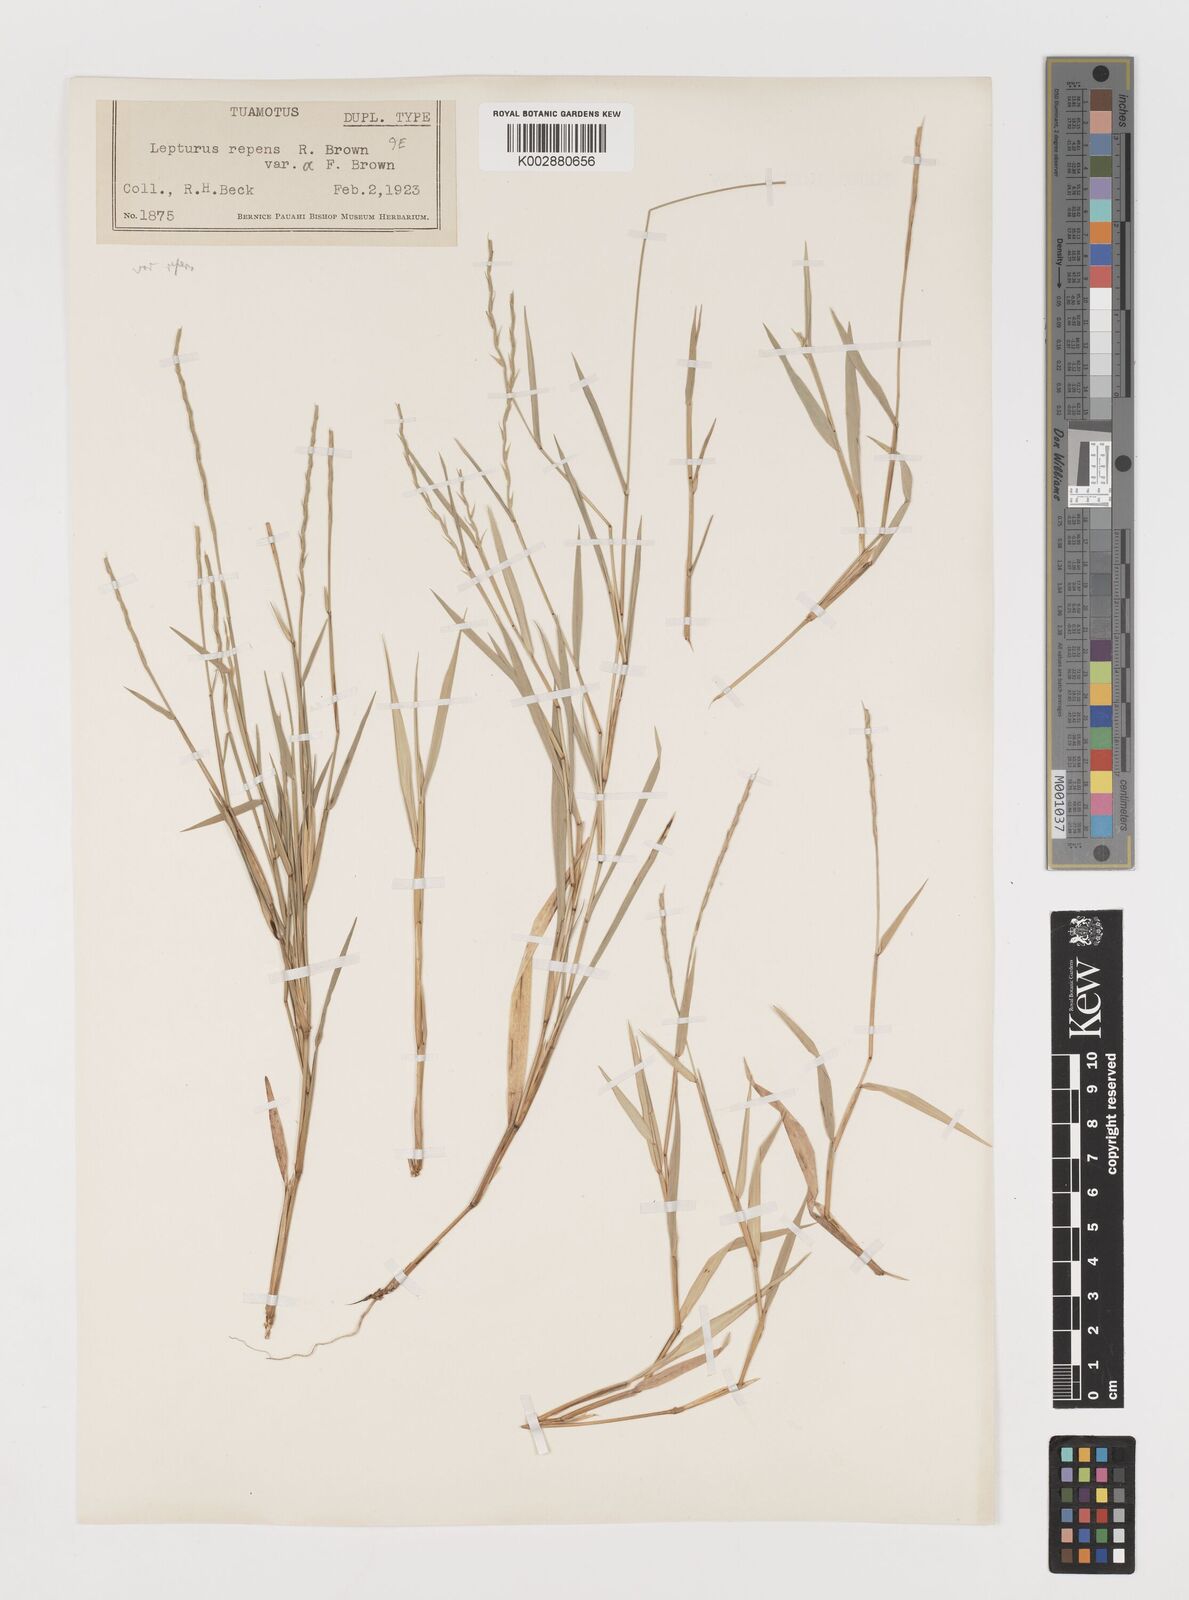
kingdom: Plantae
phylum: Tracheophyta
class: Liliopsida
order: Poales
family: Poaceae
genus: Lepturus
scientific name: Lepturus repens
